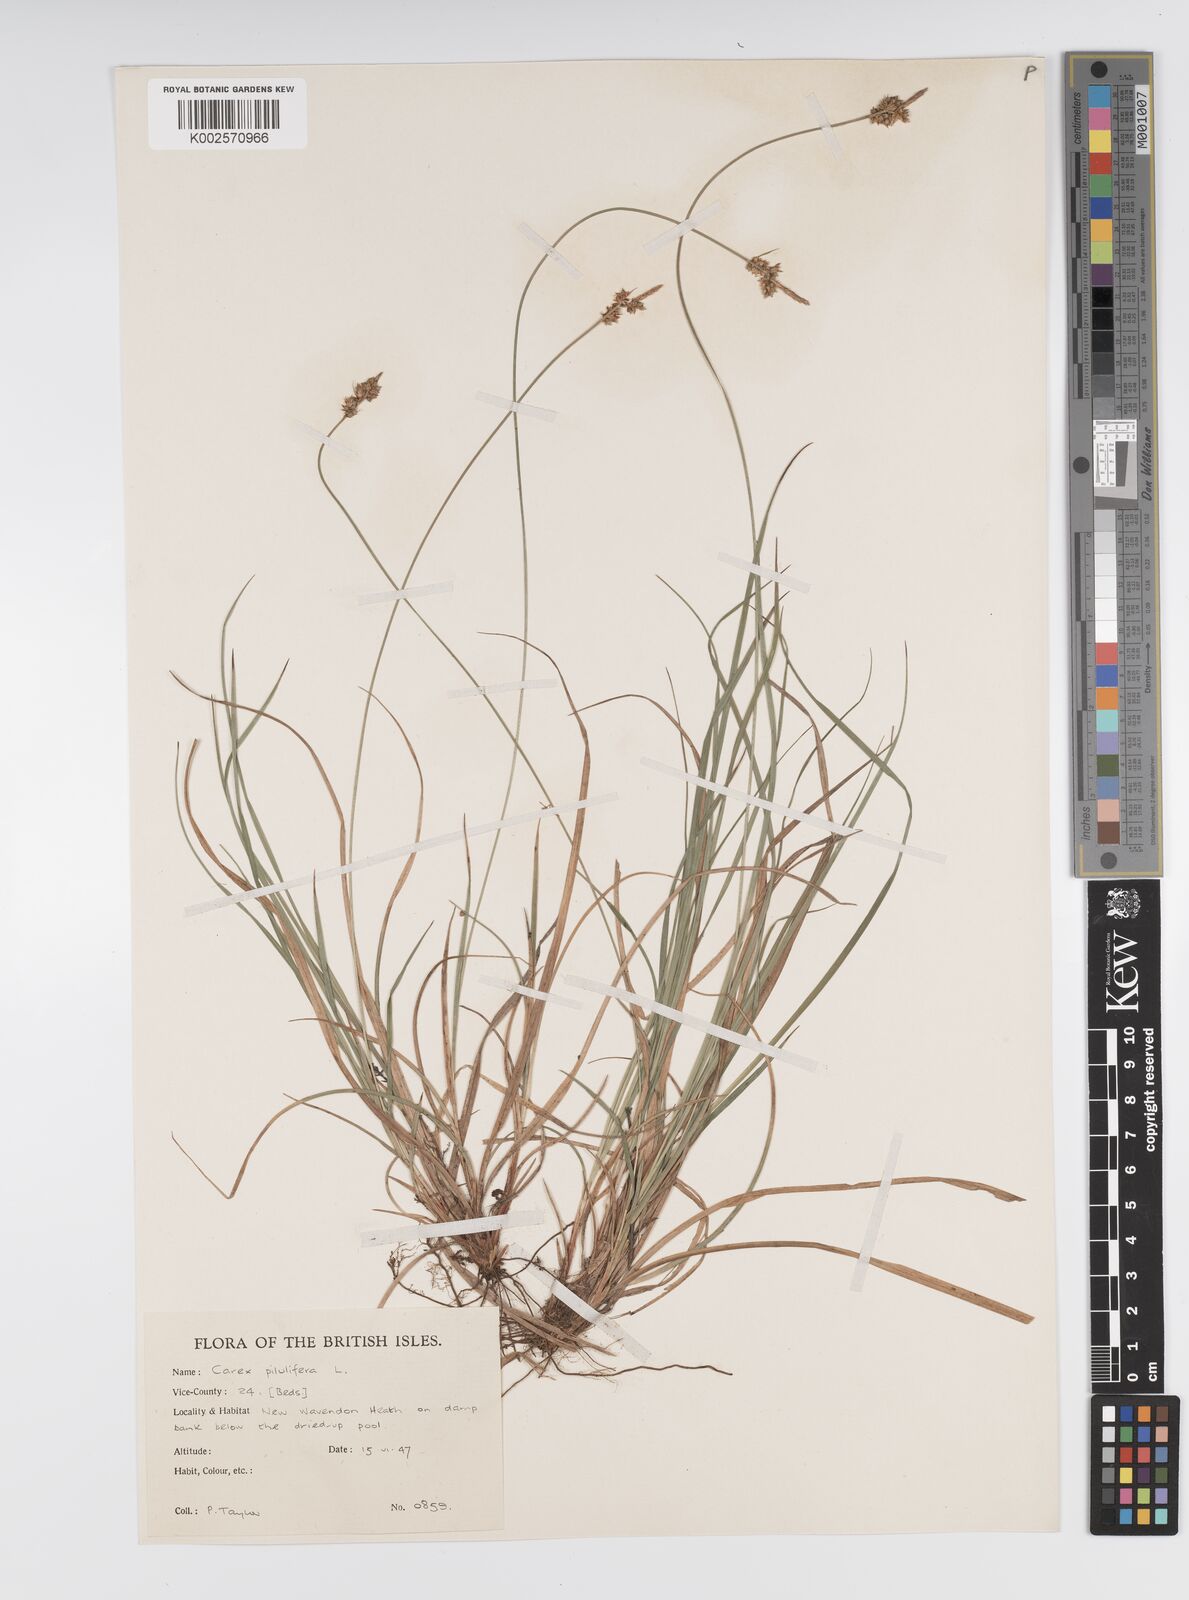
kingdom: Plantae
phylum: Tracheophyta
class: Liliopsida
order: Poales
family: Cyperaceae
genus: Carex
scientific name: Carex pilulifera
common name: Pill sedge
